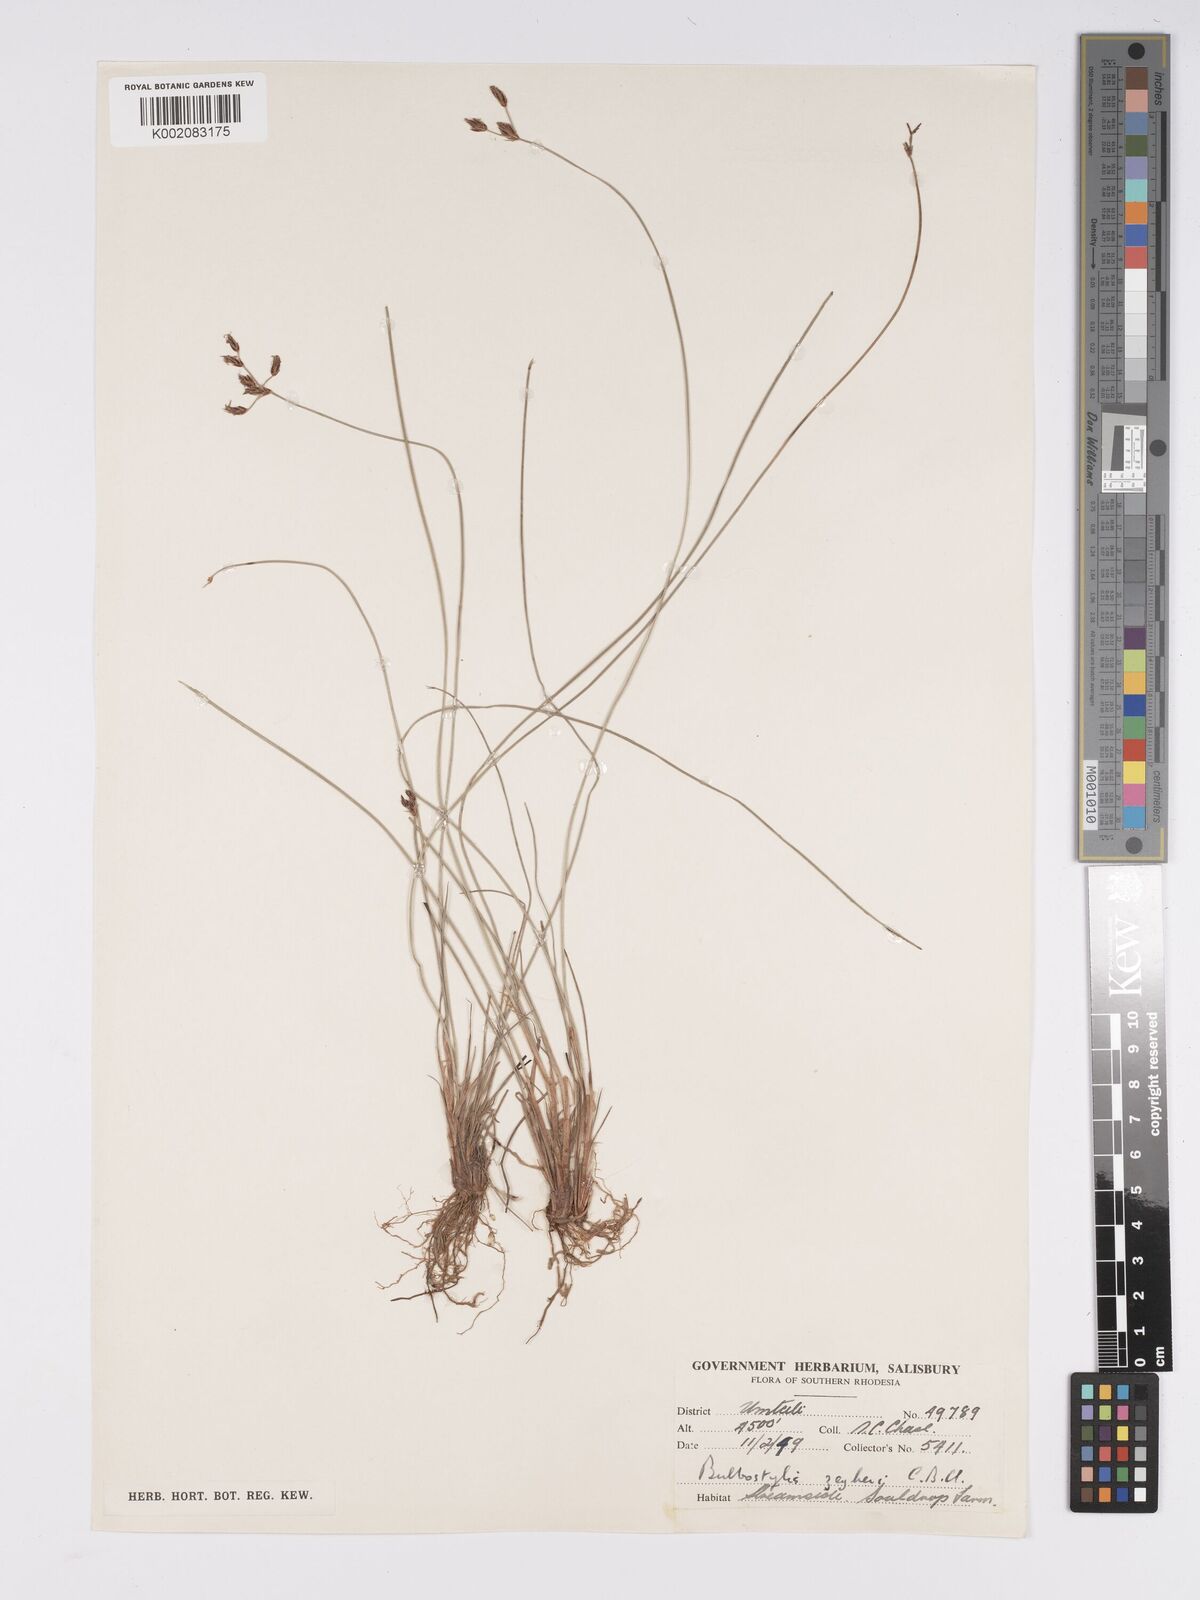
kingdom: Plantae
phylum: Tracheophyta
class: Liliopsida
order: Poales
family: Cyperaceae
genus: Bulbostylis
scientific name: Bulbostylis contexta
